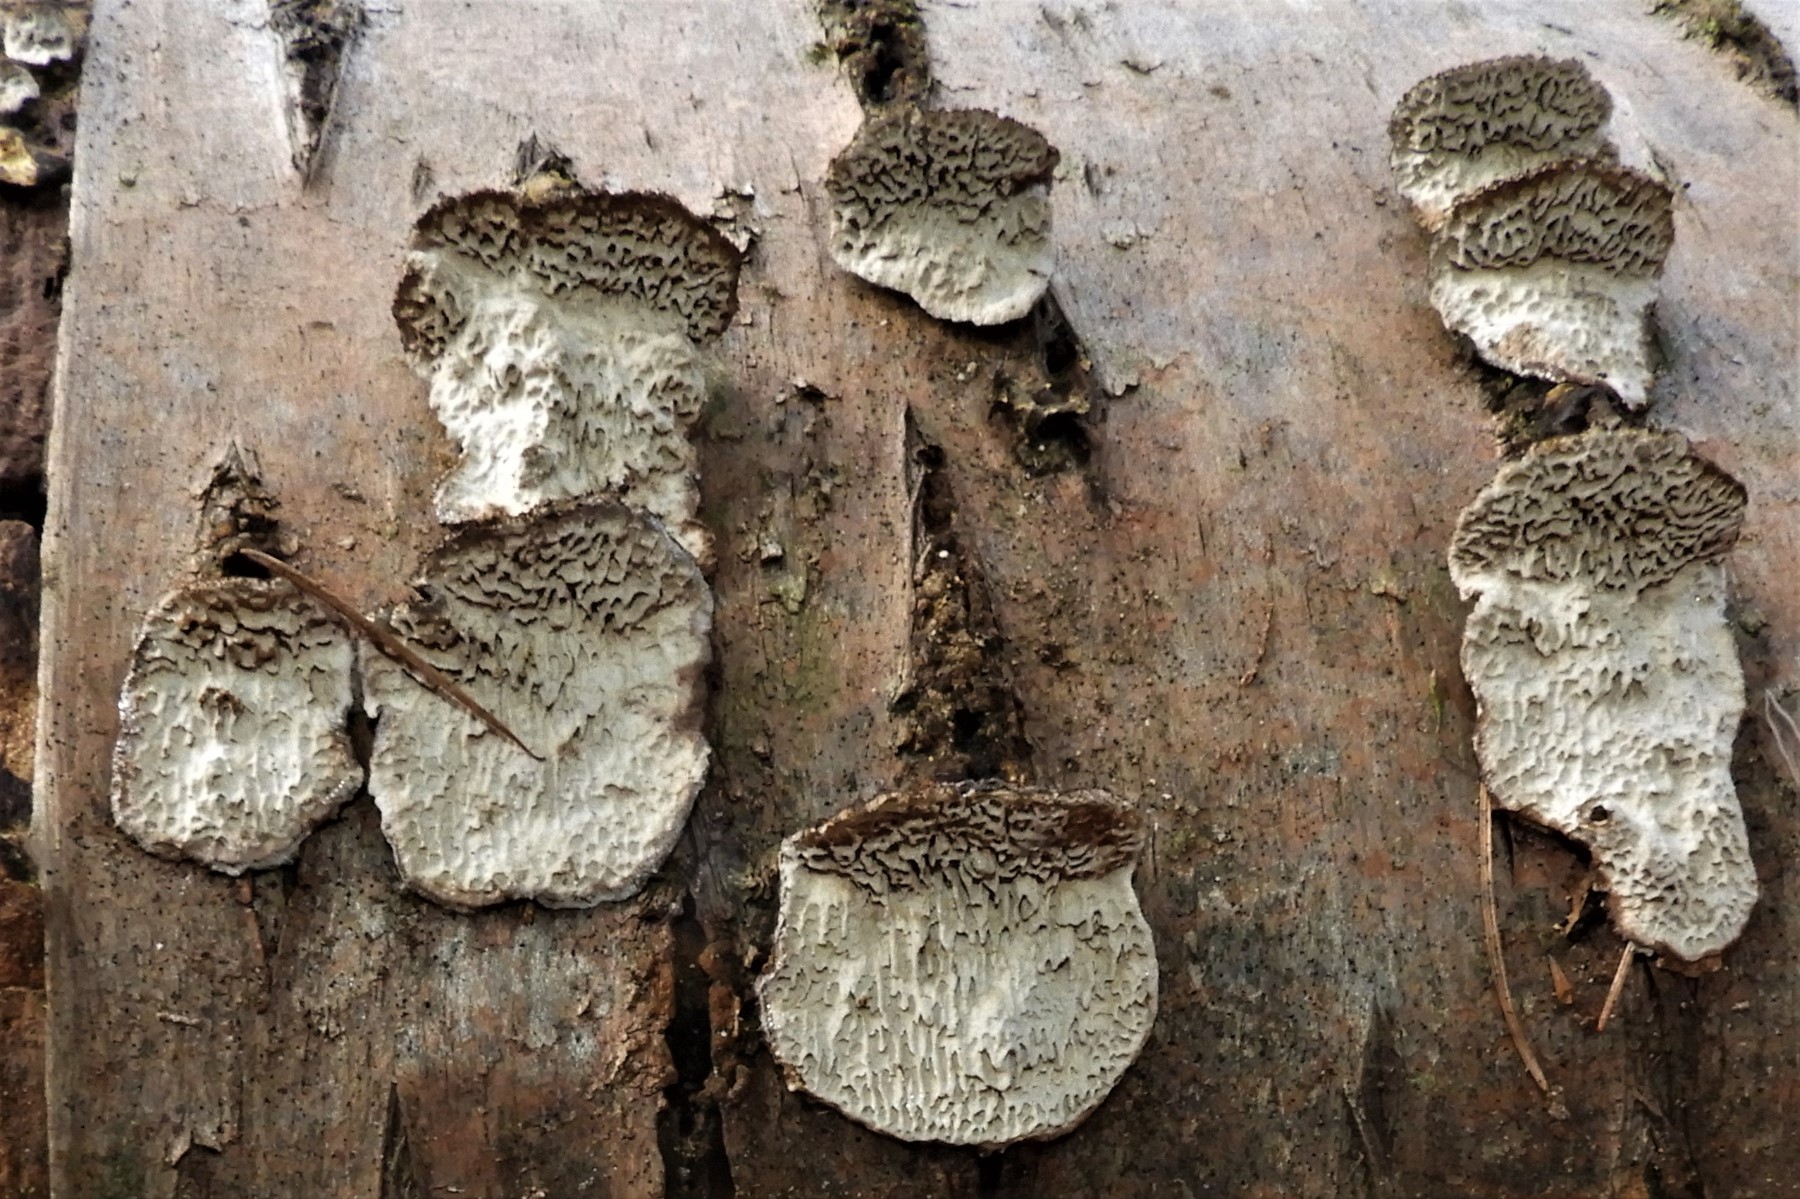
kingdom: Fungi
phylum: Basidiomycota
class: Agaricomycetes
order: Polyporales
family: Polyporaceae
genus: Podofomes
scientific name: Podofomes mollis
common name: blød begporesvamp
